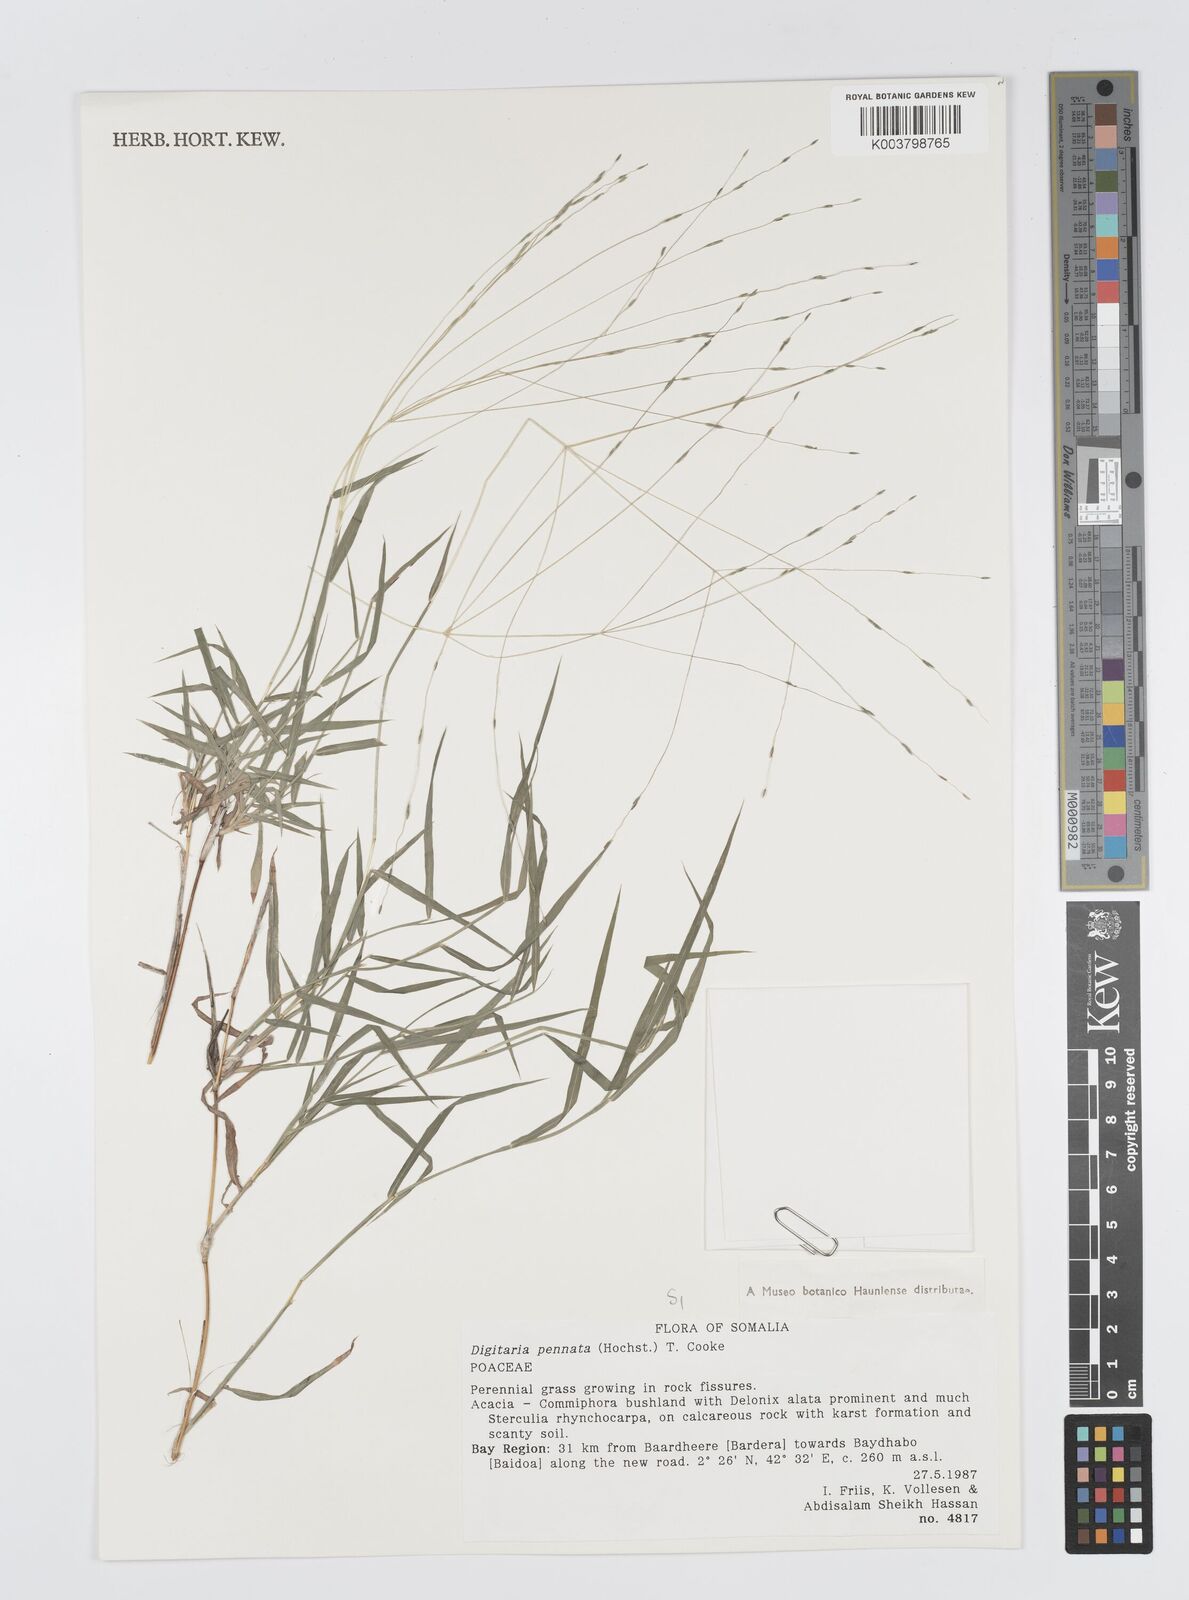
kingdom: Plantae
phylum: Tracheophyta
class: Liliopsida
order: Poales
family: Poaceae
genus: Digitaria
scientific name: Digitaria pennata
